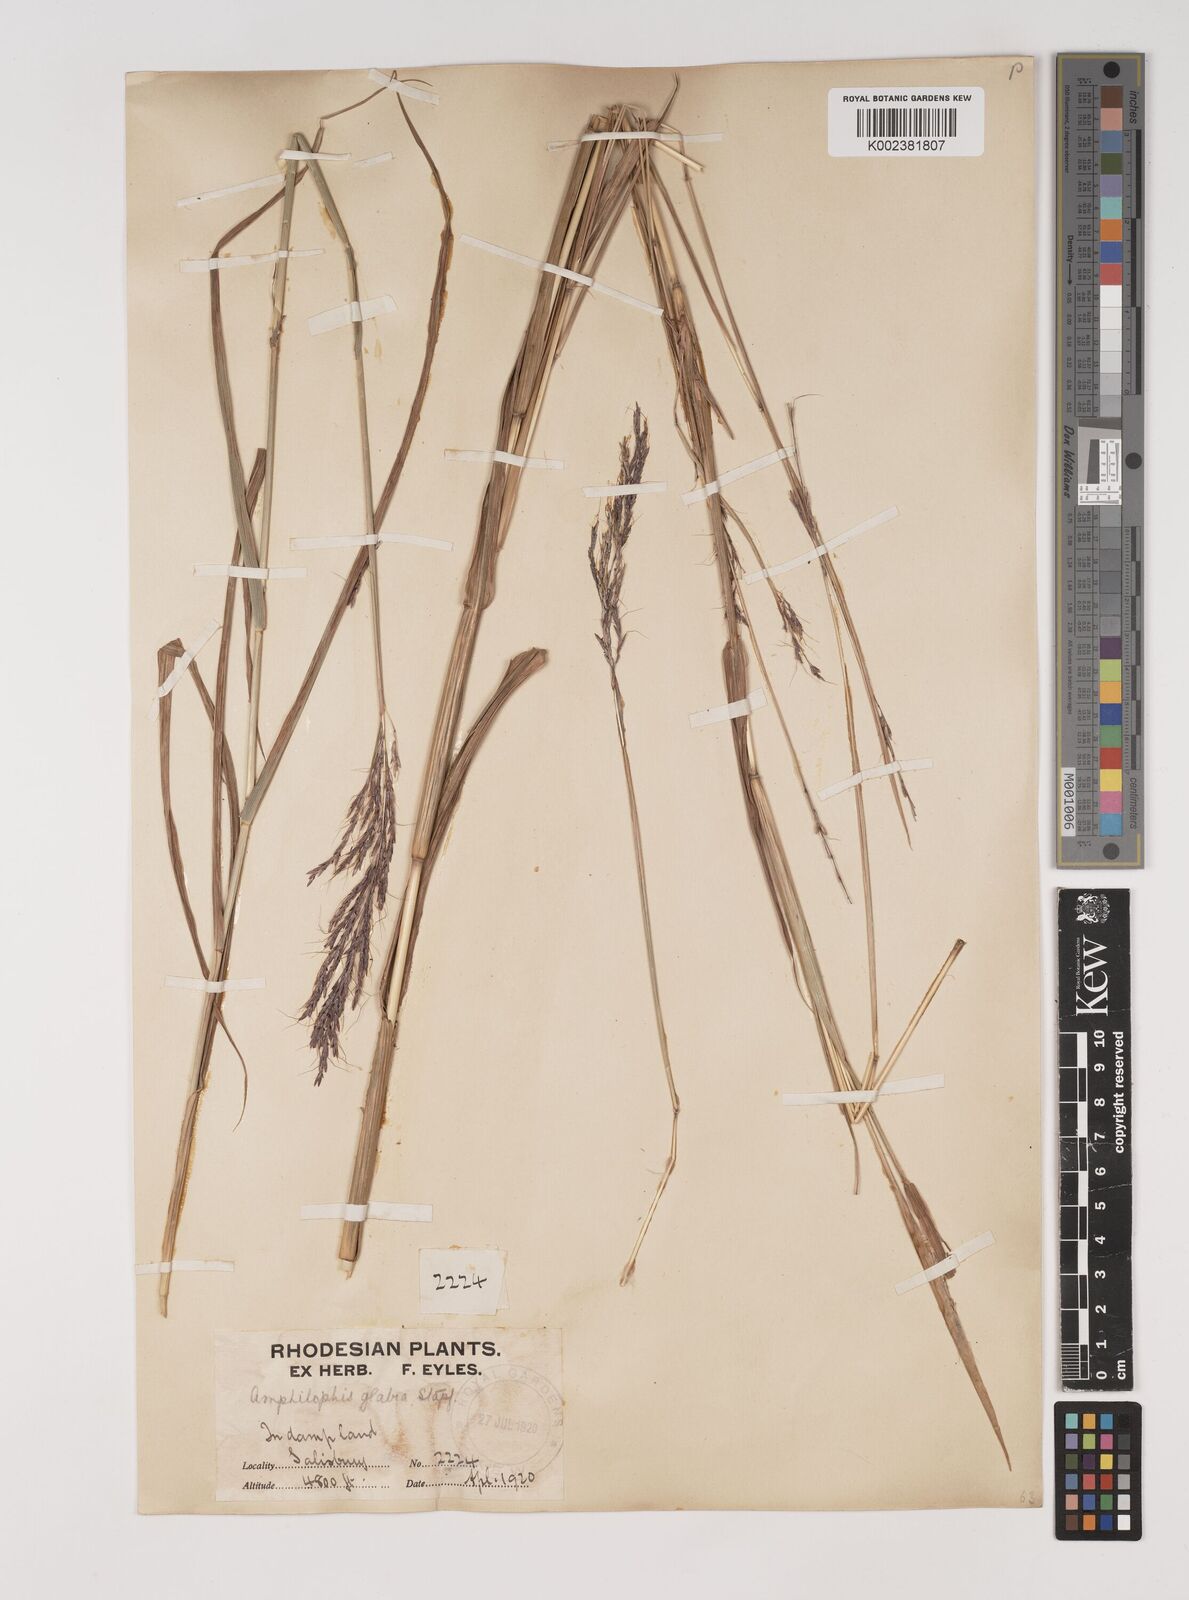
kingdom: Plantae
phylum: Tracheophyta
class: Liliopsida
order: Poales
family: Poaceae
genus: Bothriochloa
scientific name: Bothriochloa bladhii
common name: Caucasian bluestem
